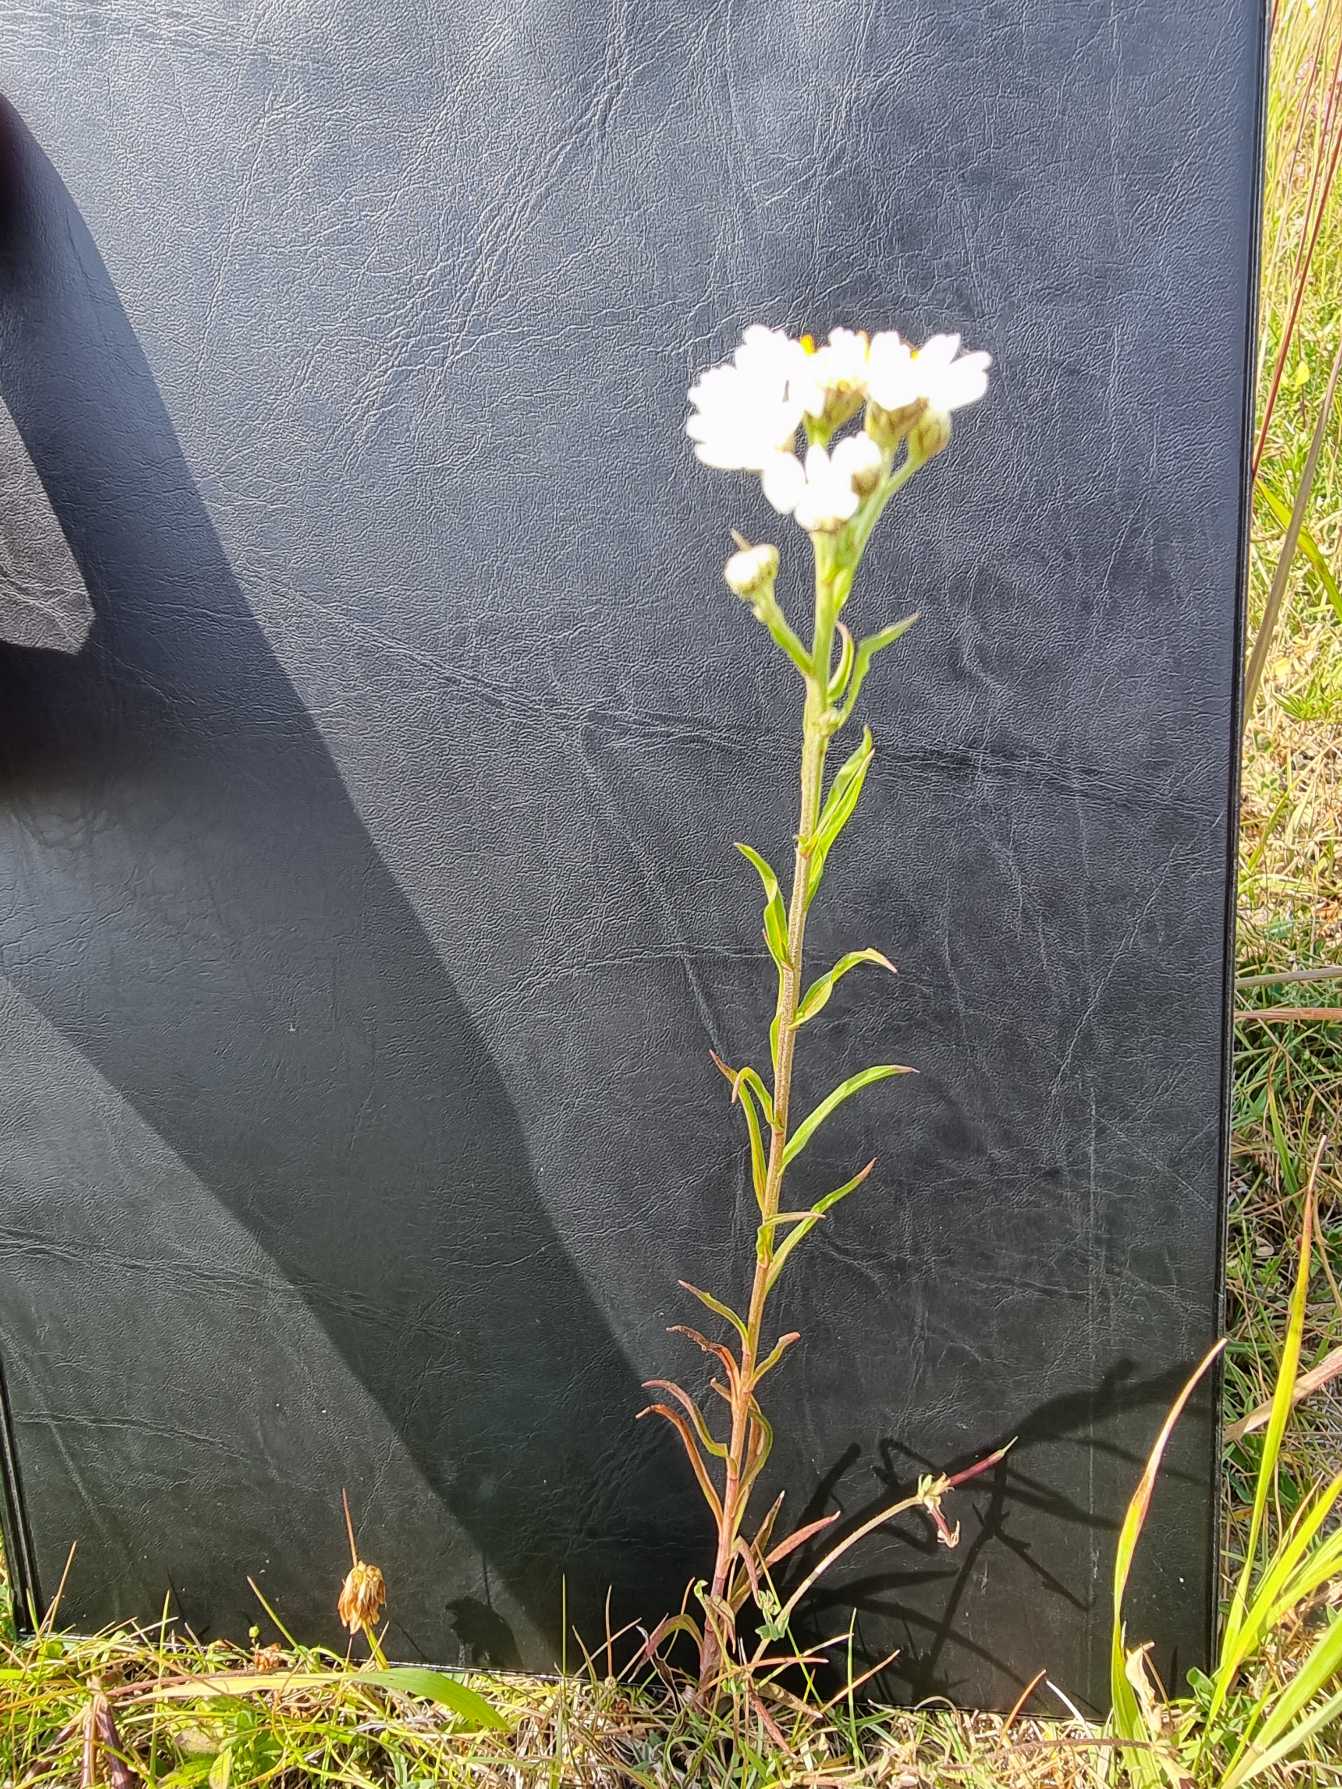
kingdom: Plantae
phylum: Tracheophyta
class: Magnoliopsida
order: Asterales
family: Asteraceae
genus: Achillea
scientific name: Achillea ptarmica
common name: Nyse-røllike
